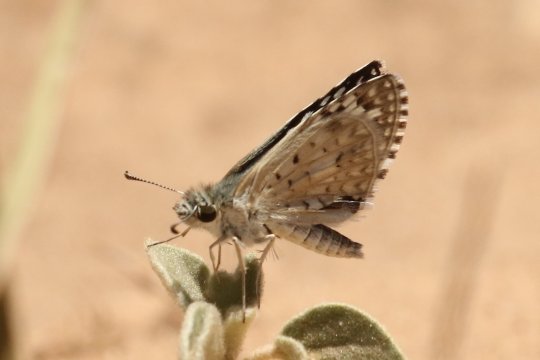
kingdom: Animalia
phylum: Arthropoda
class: Insecta
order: Lepidoptera
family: Hesperiidae
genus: Pyrgus
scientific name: Pyrgus oileus
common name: Desert Checkered-Skipper
